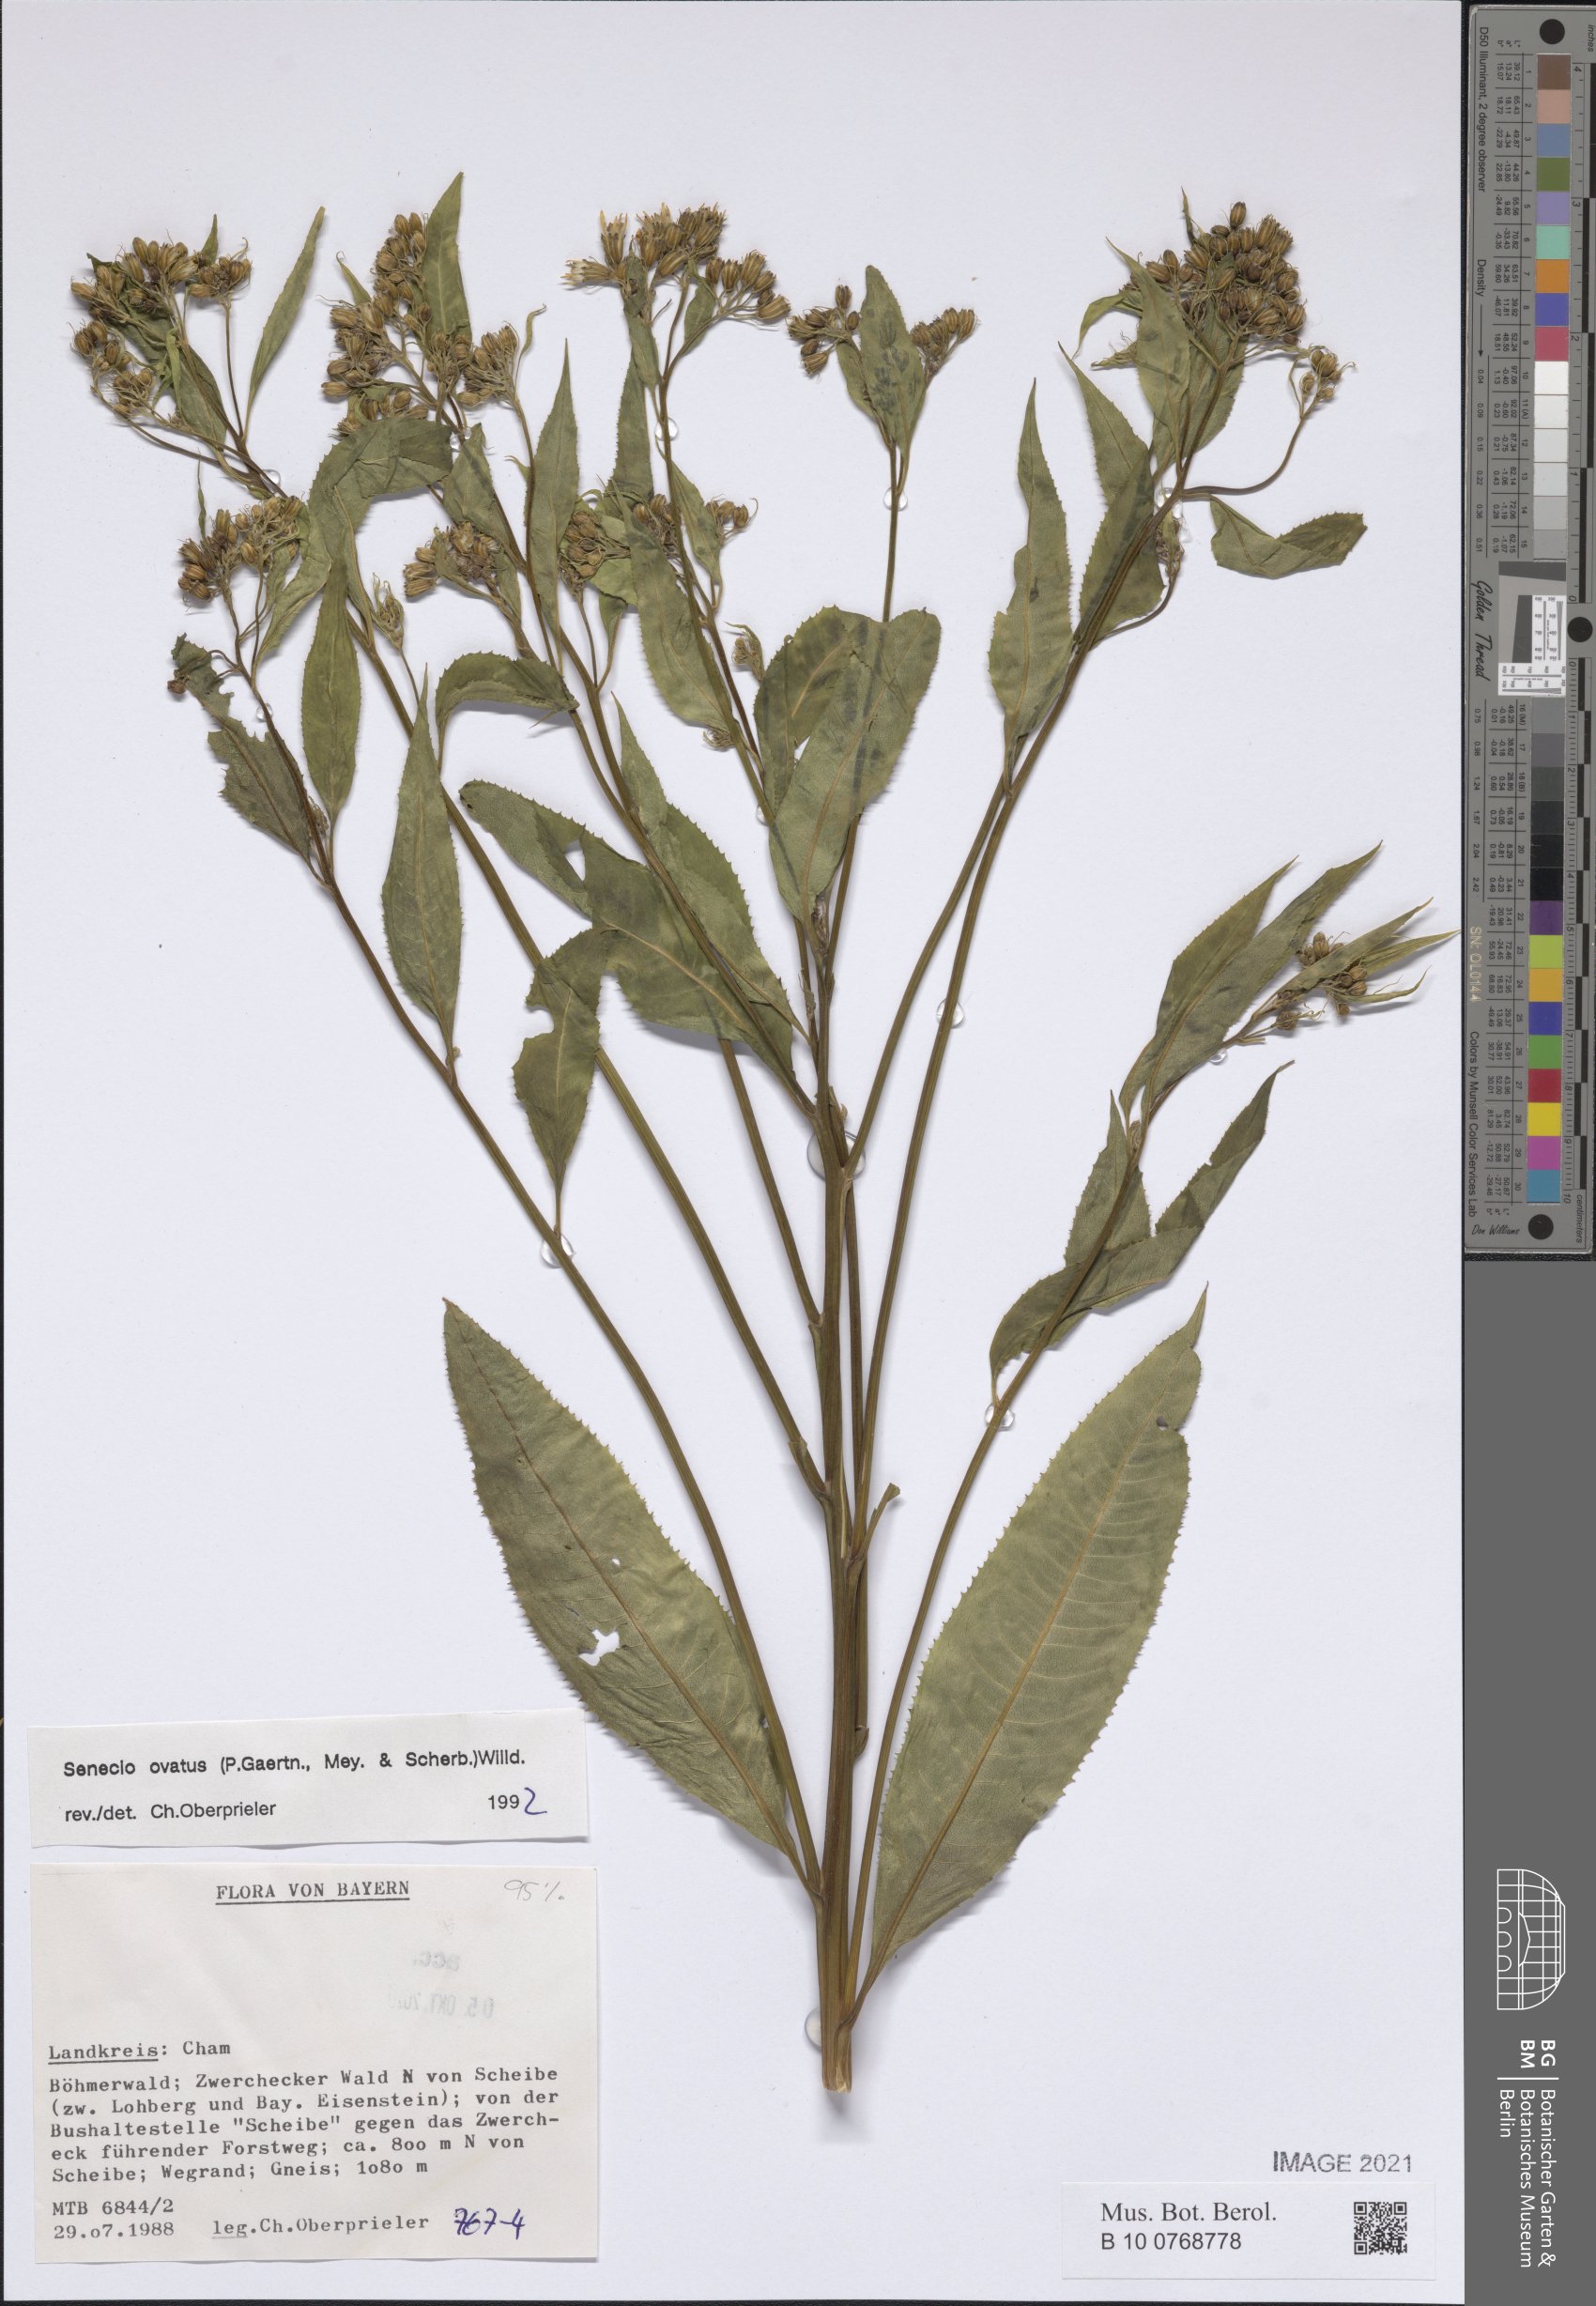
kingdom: Plantae
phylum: Tracheophyta
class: Magnoliopsida
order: Asterales
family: Asteraceae
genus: Senecio
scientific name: Senecio ovatus
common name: Wood ragwort
